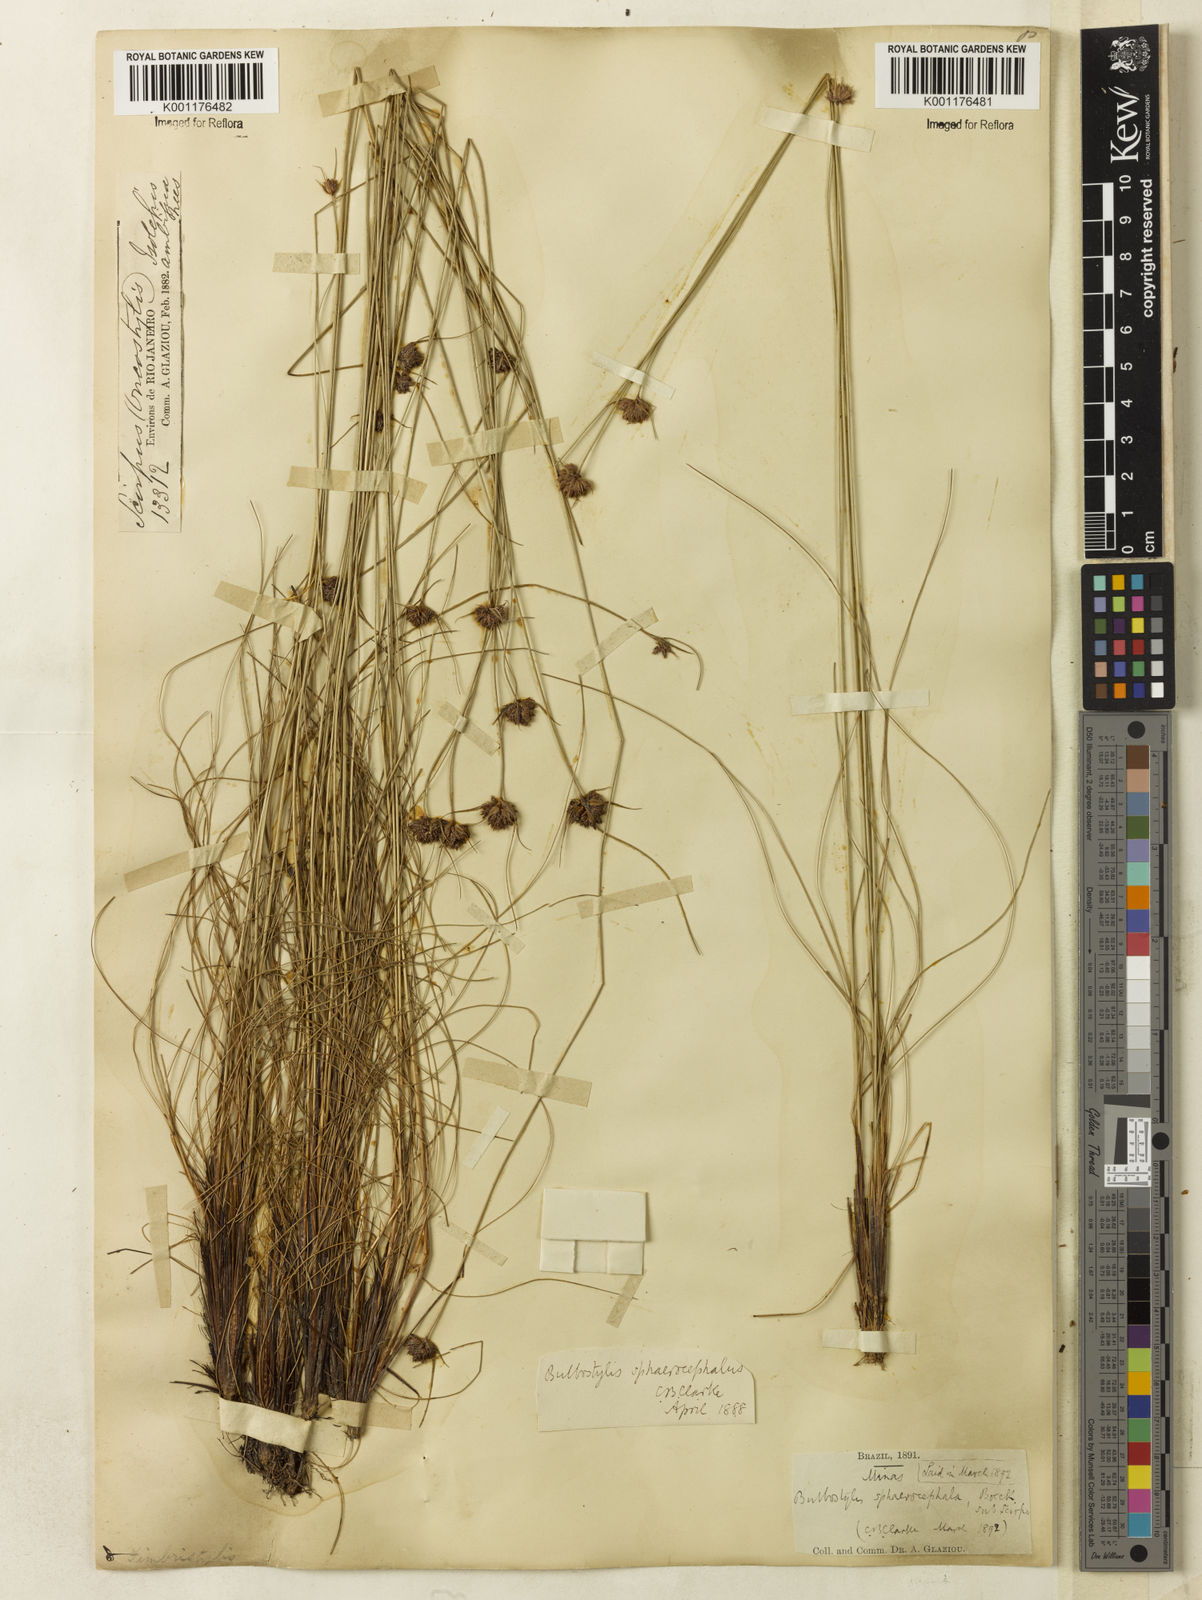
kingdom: Plantae
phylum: Tracheophyta
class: Liliopsida
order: Poales
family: Cyperaceae
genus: Bulbostylis
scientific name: Bulbostylis
